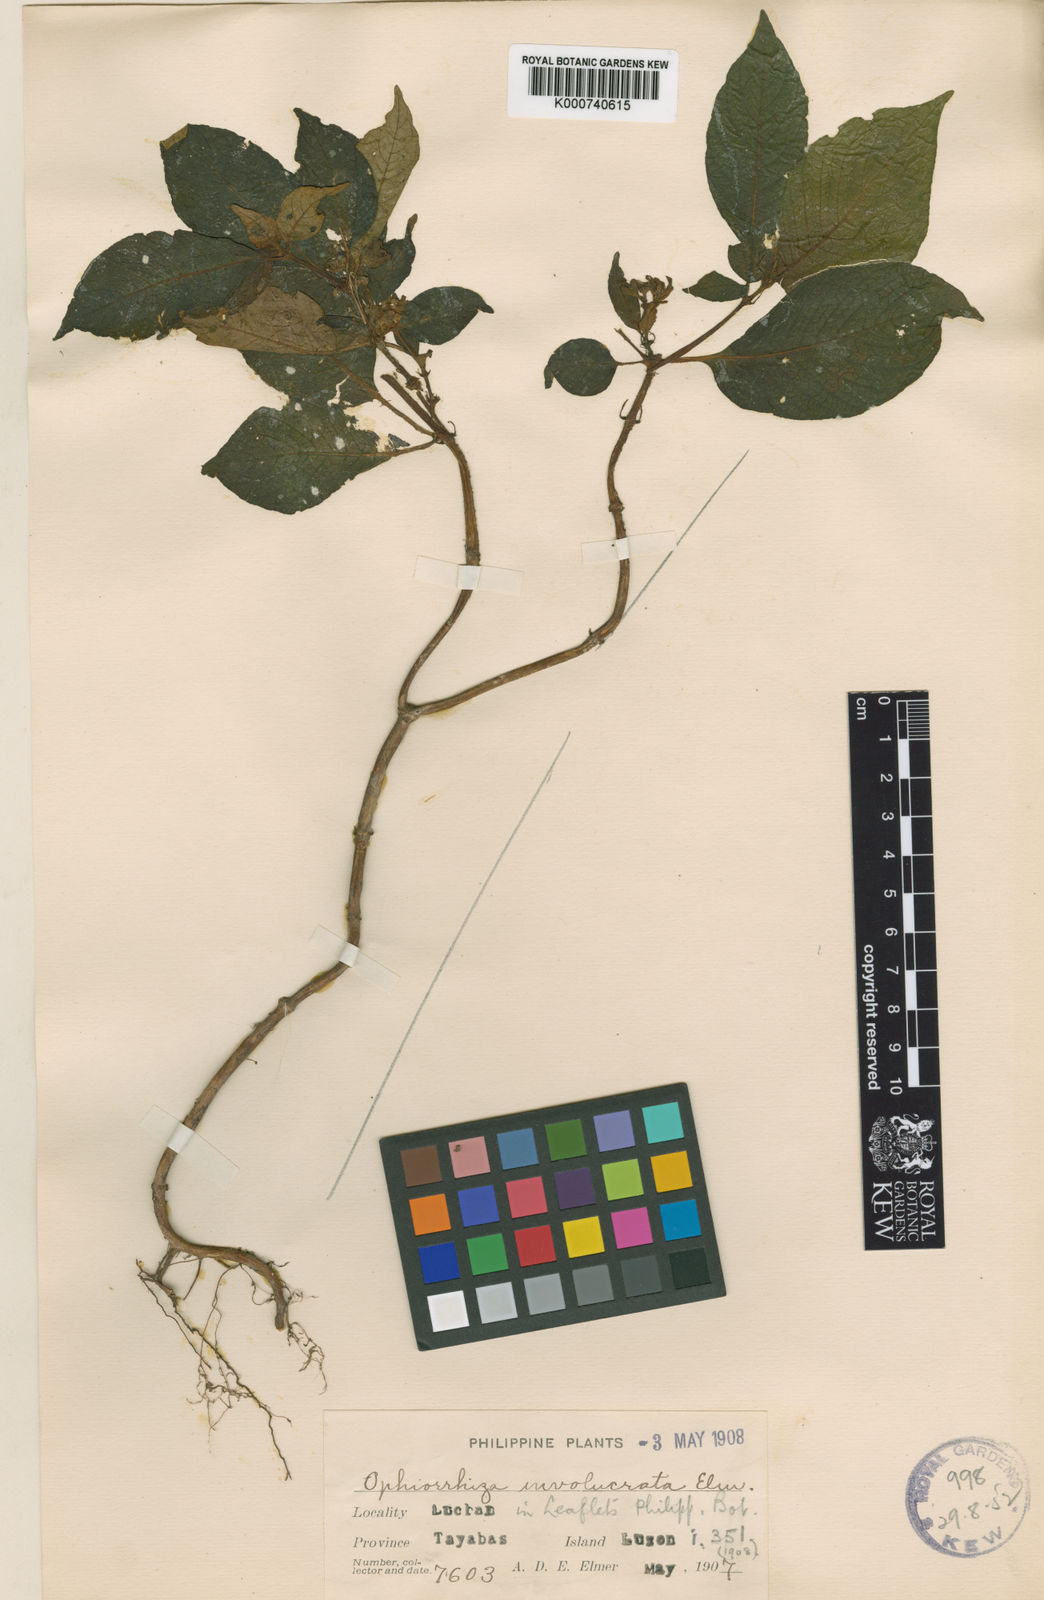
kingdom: Plantae
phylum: Tracheophyta
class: Magnoliopsida
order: Gentianales
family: Rubiaceae
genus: Ophiorrhiza
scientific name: Ophiorrhiza involucrata
